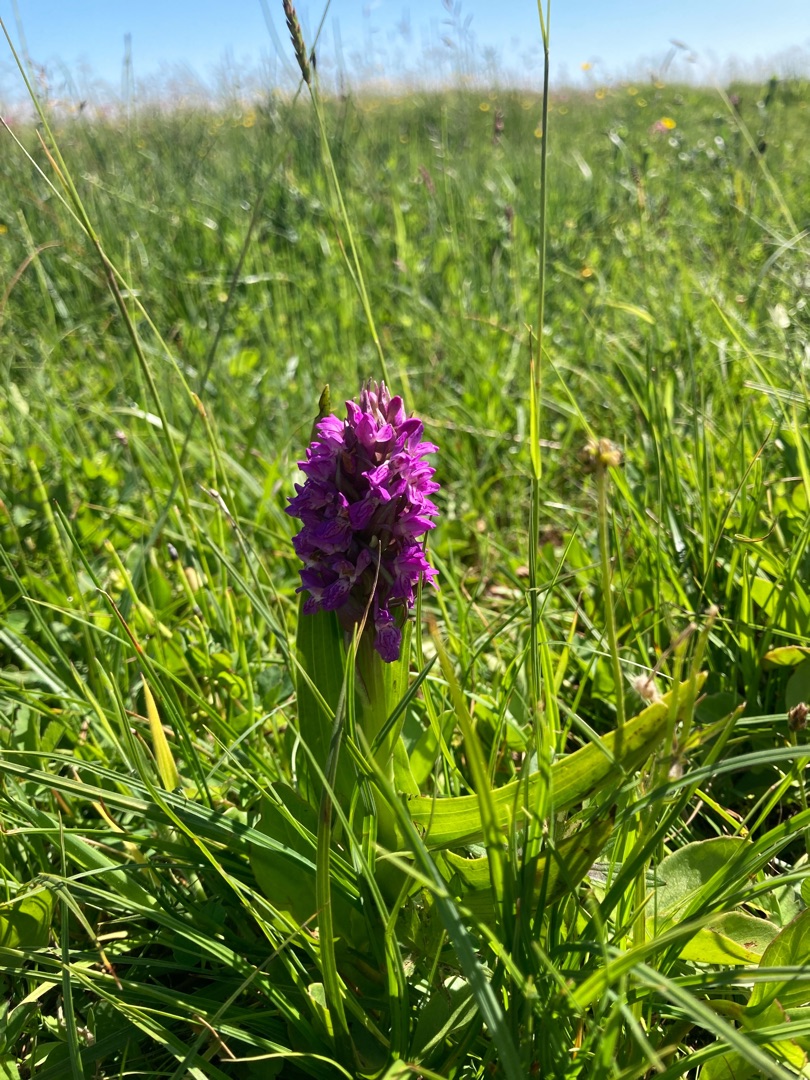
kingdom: Plantae
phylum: Tracheophyta
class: Liliopsida
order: Asparagales
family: Orchidaceae
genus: Dactylorhiza
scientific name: Dactylorhiza incarnata
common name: Kødfarvet gøgeurt
